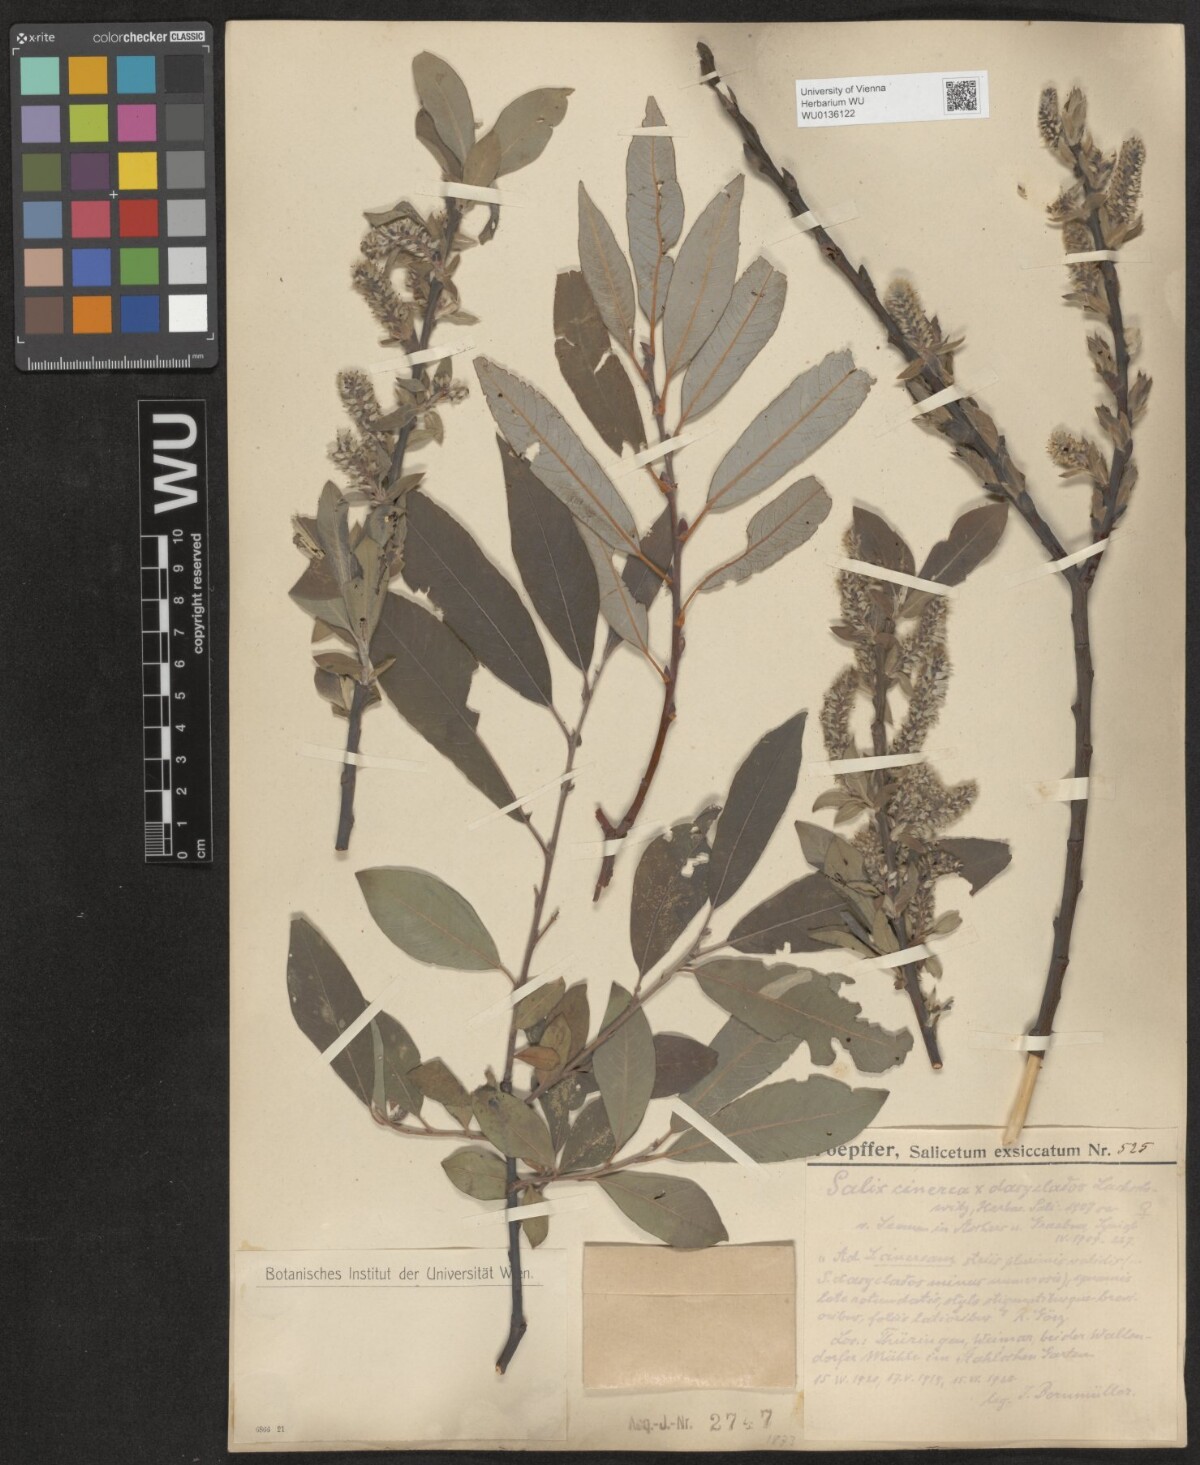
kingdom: Plantae
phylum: Tracheophyta
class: Magnoliopsida
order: Malpighiales
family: Salicaceae
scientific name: Salicaceae
